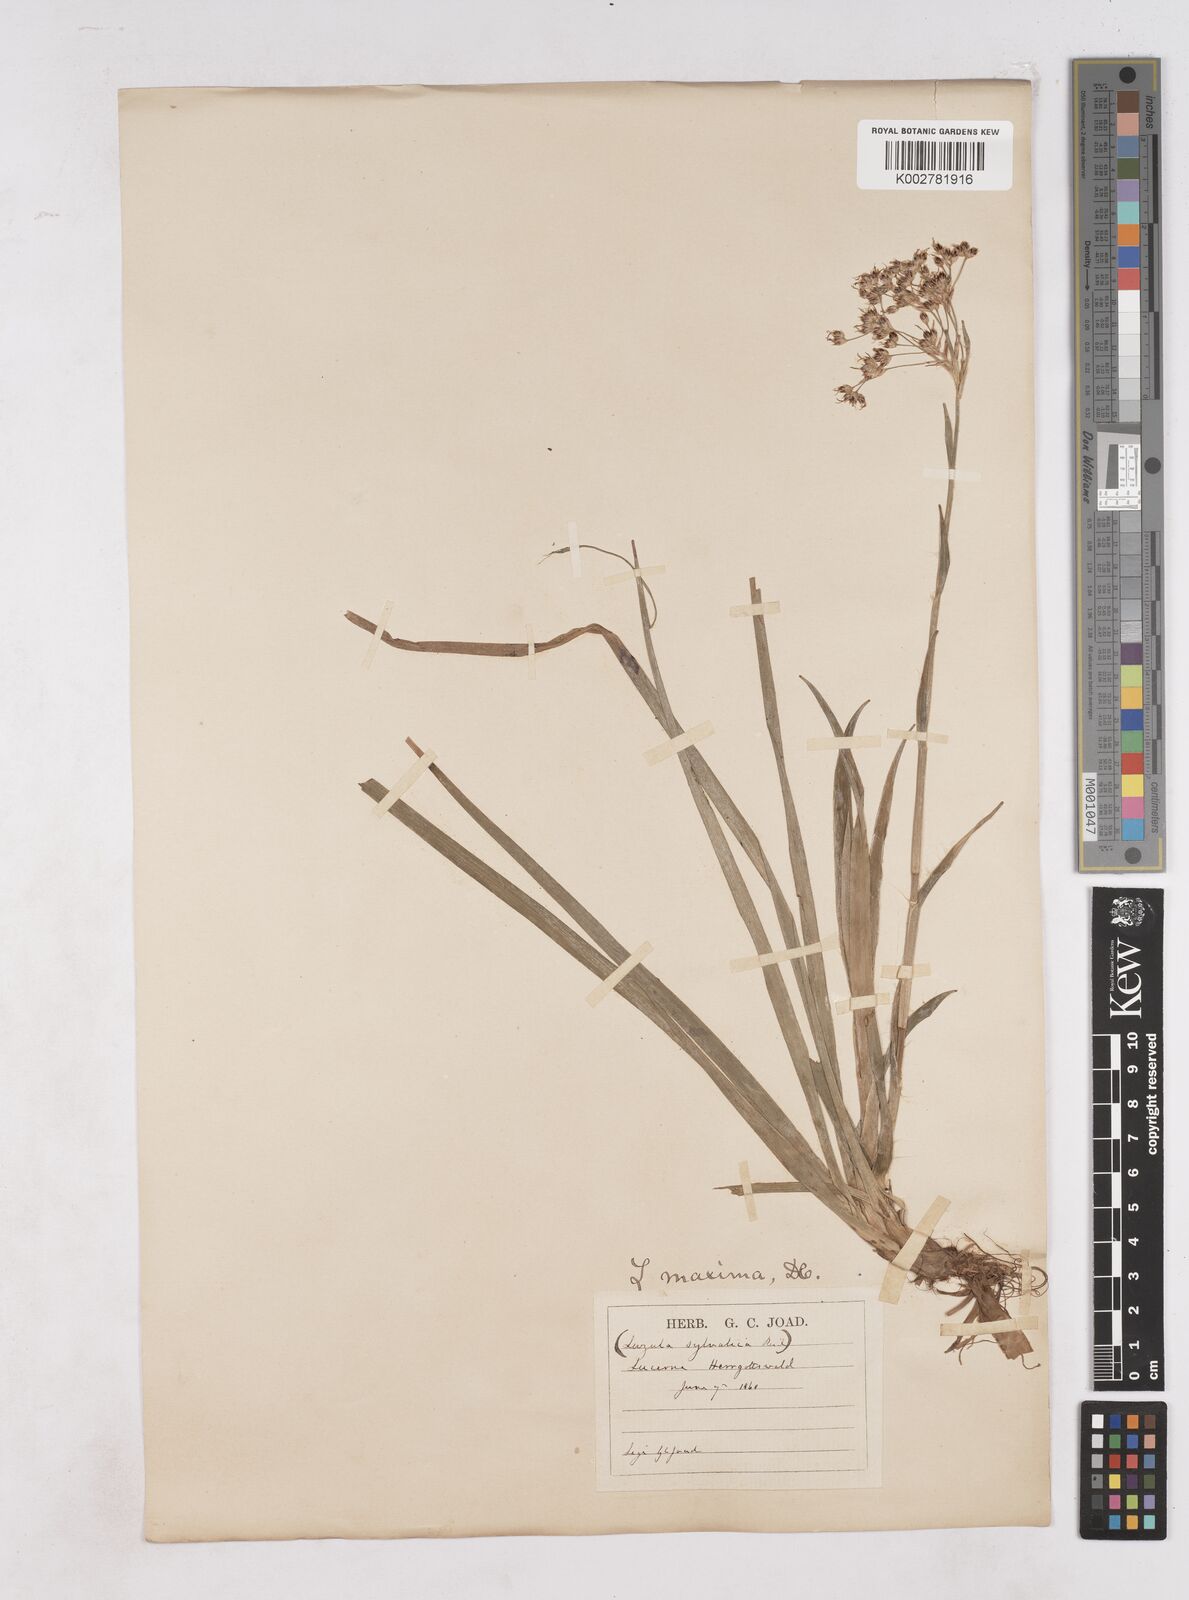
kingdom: Plantae
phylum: Tracheophyta
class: Liliopsida
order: Poales
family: Juncaceae
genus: Luzula
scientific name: Luzula sylvatica
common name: Great wood-rush
